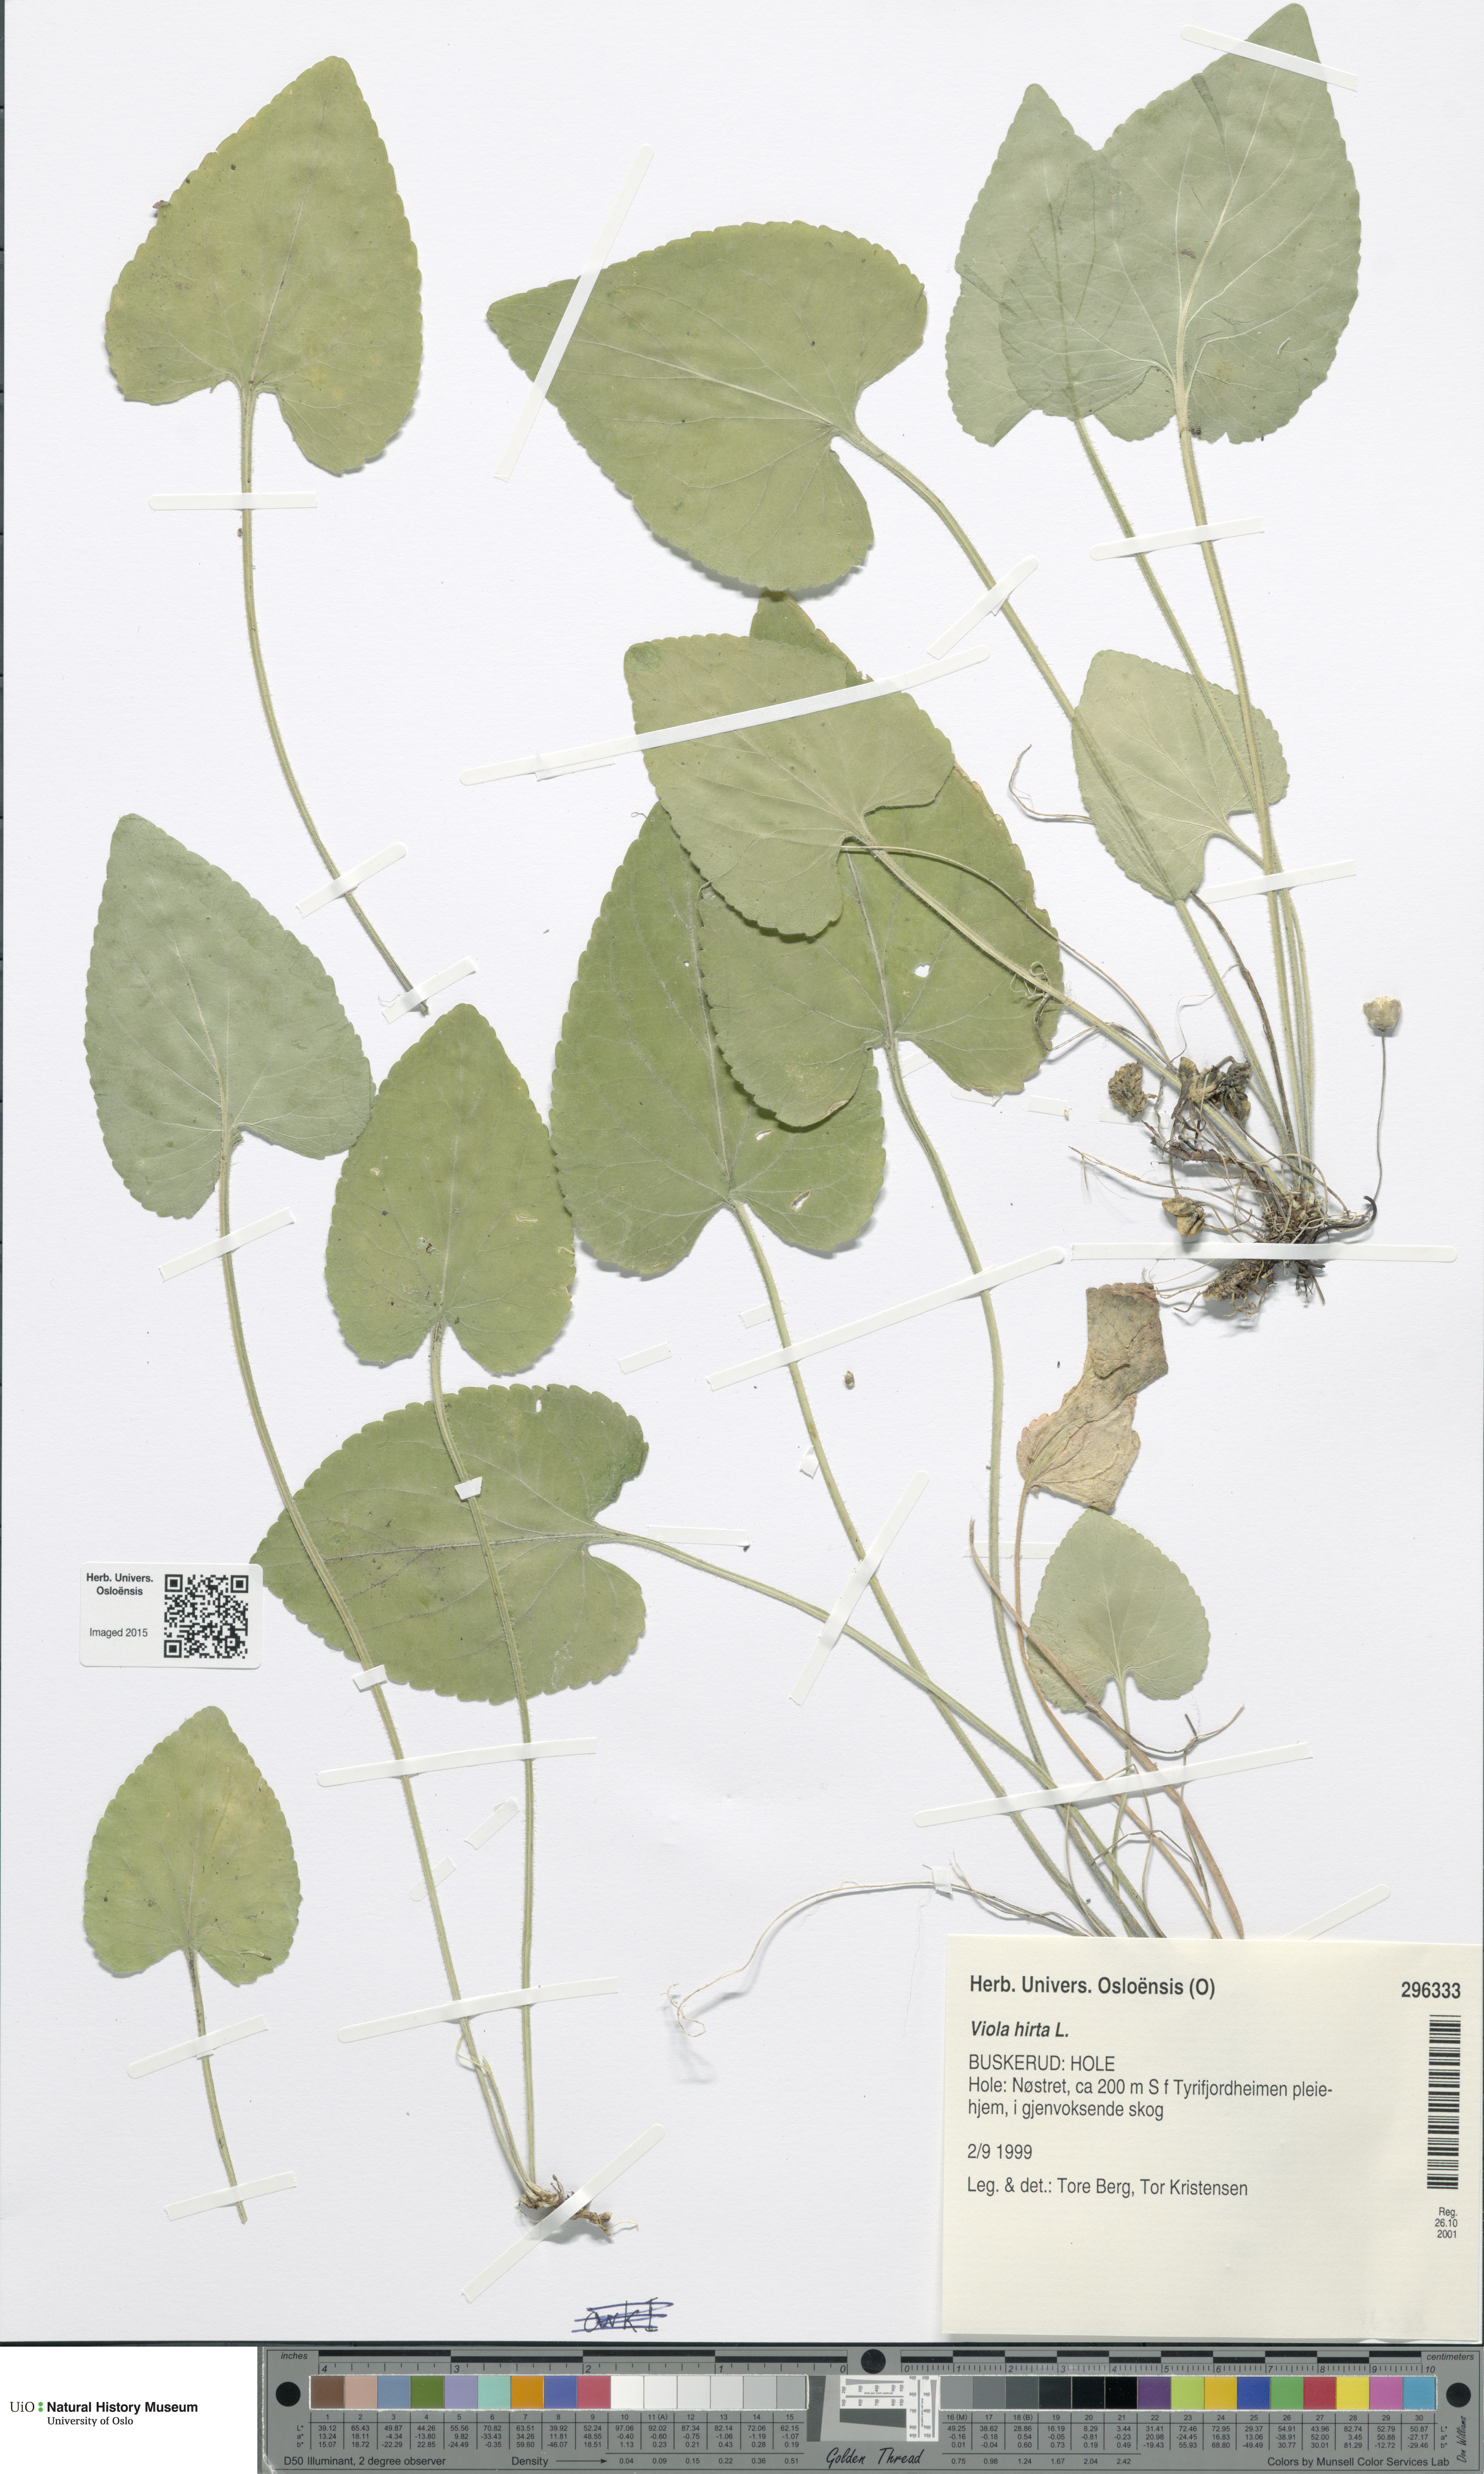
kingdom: Plantae
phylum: Tracheophyta
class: Magnoliopsida
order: Malpighiales
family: Violaceae
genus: Viola
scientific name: Viola hirta
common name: Hairy violet
